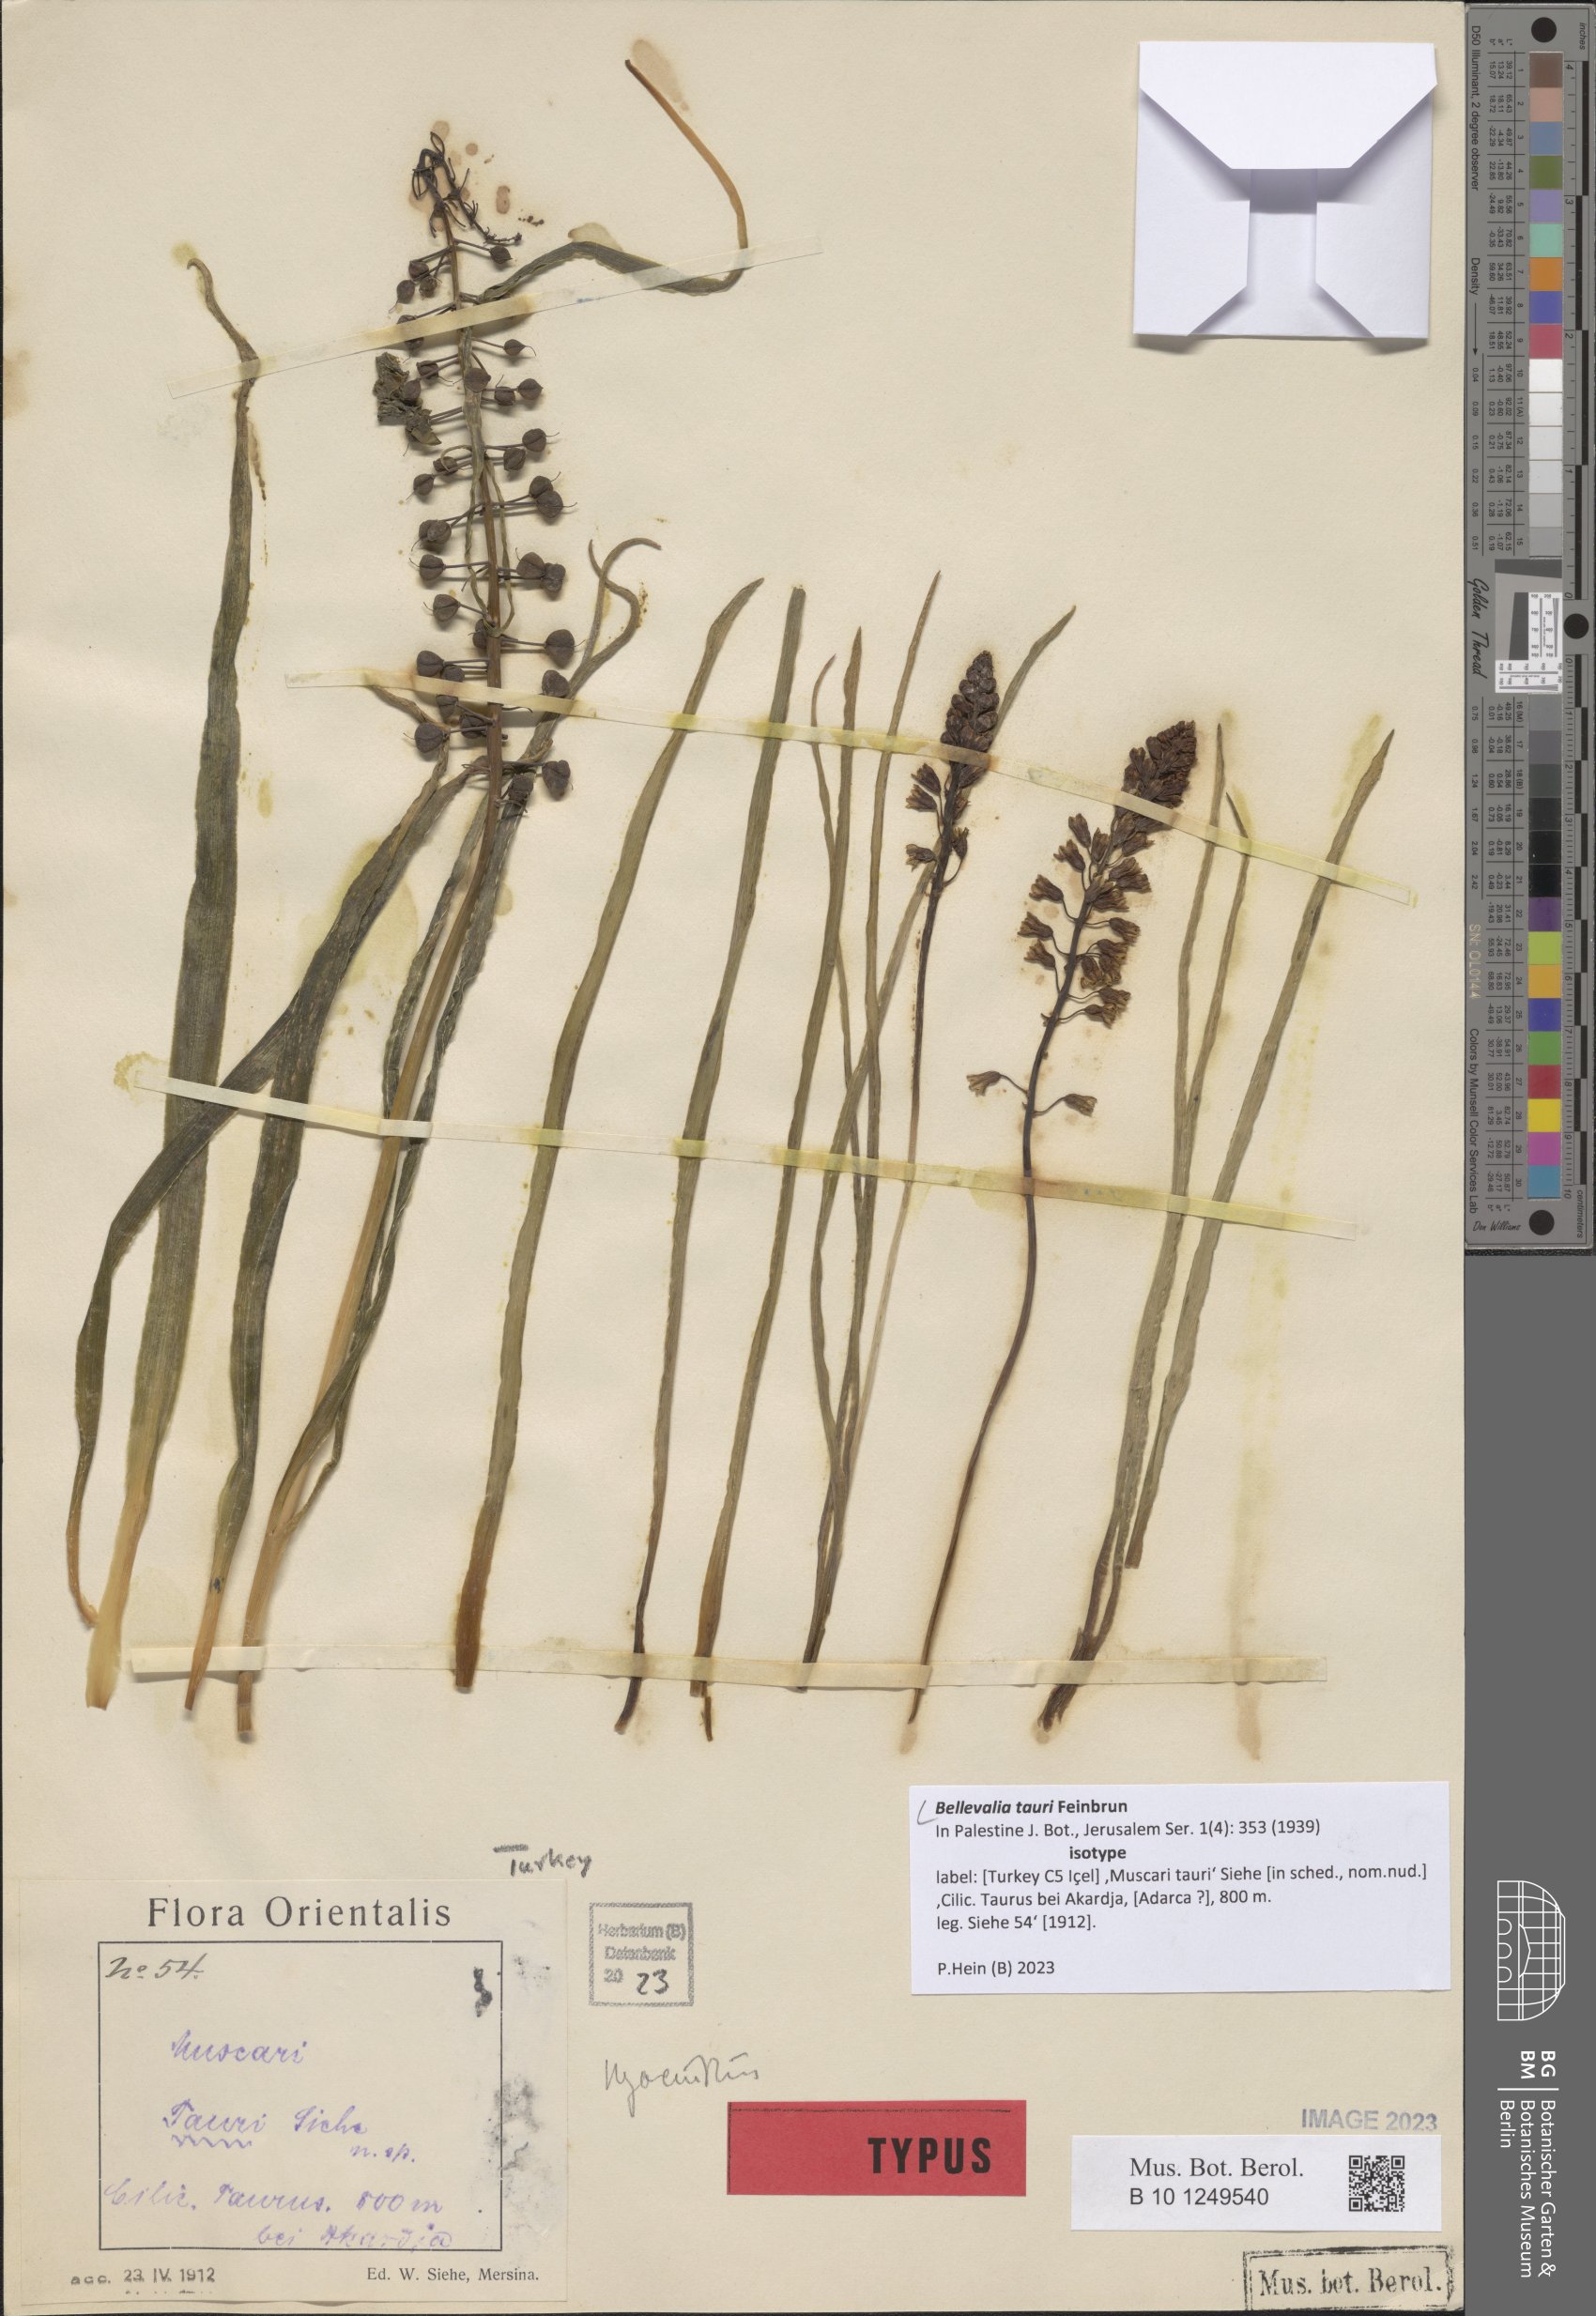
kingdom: Plantae
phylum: Tracheophyta
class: Liliopsida
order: Asparagales
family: Asparagaceae
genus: Bellevalia
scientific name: Bellevalia tauri
